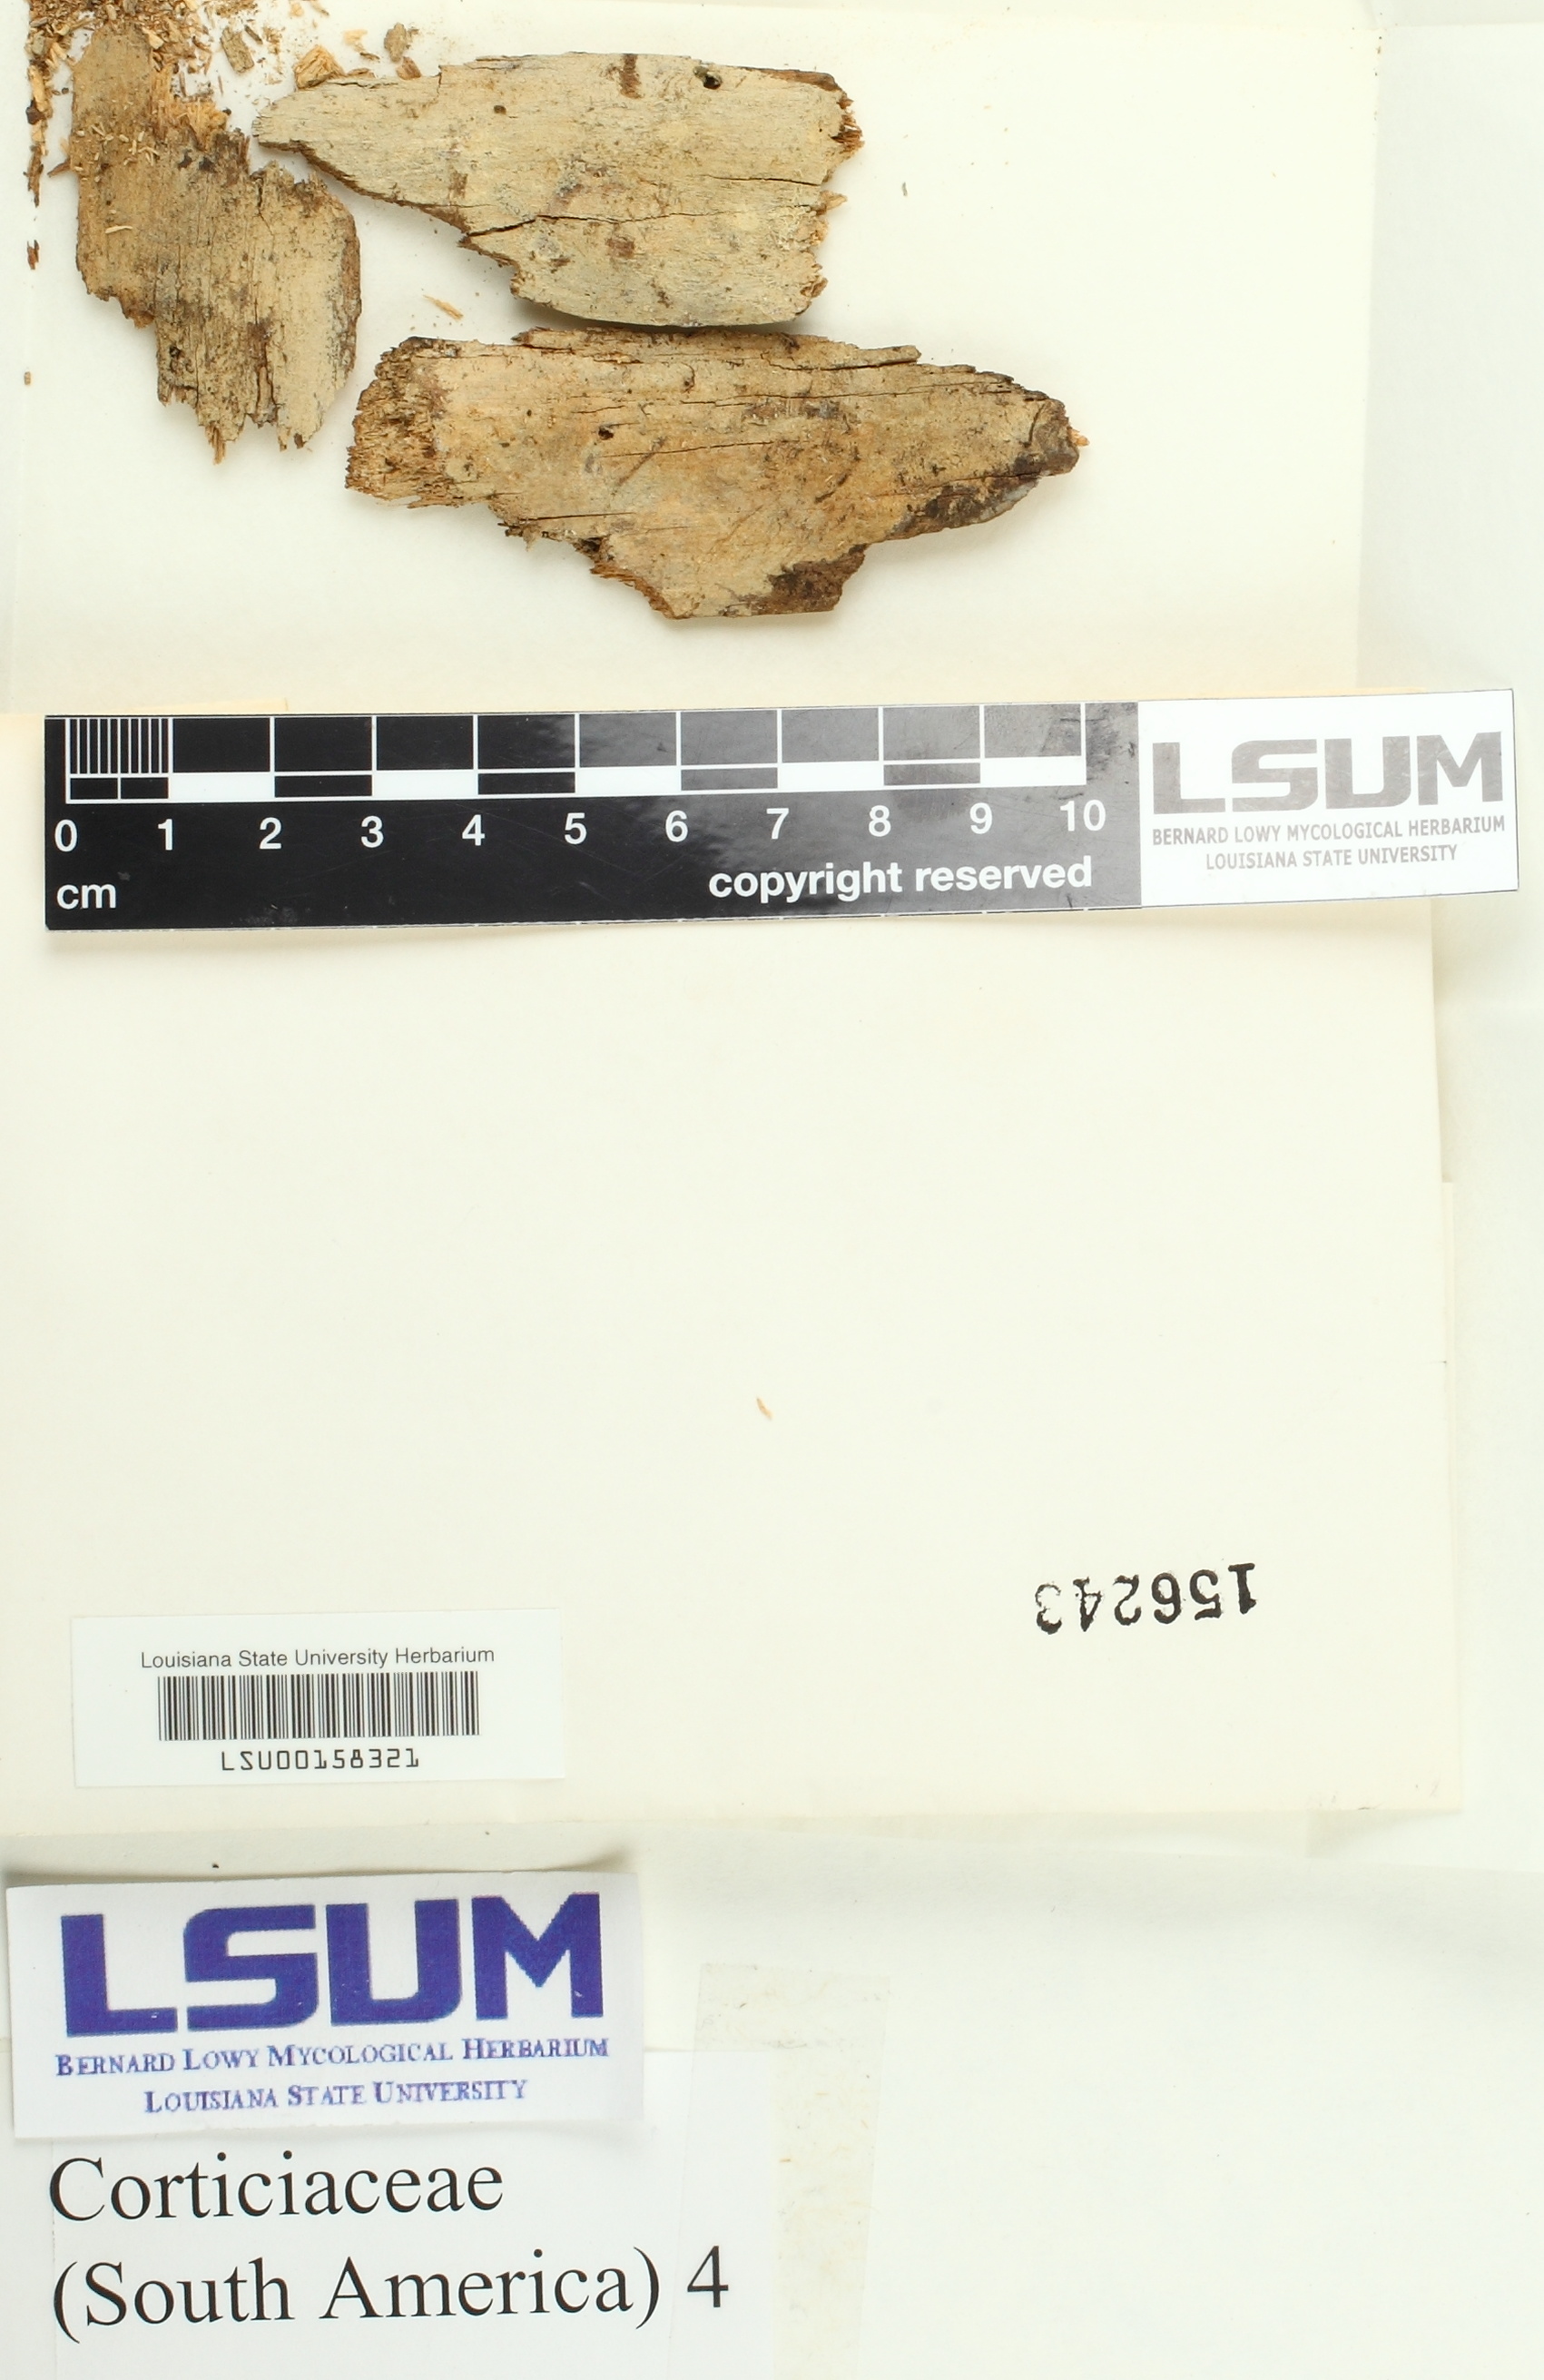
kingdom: Fungi
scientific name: Fungi
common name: Fungi
